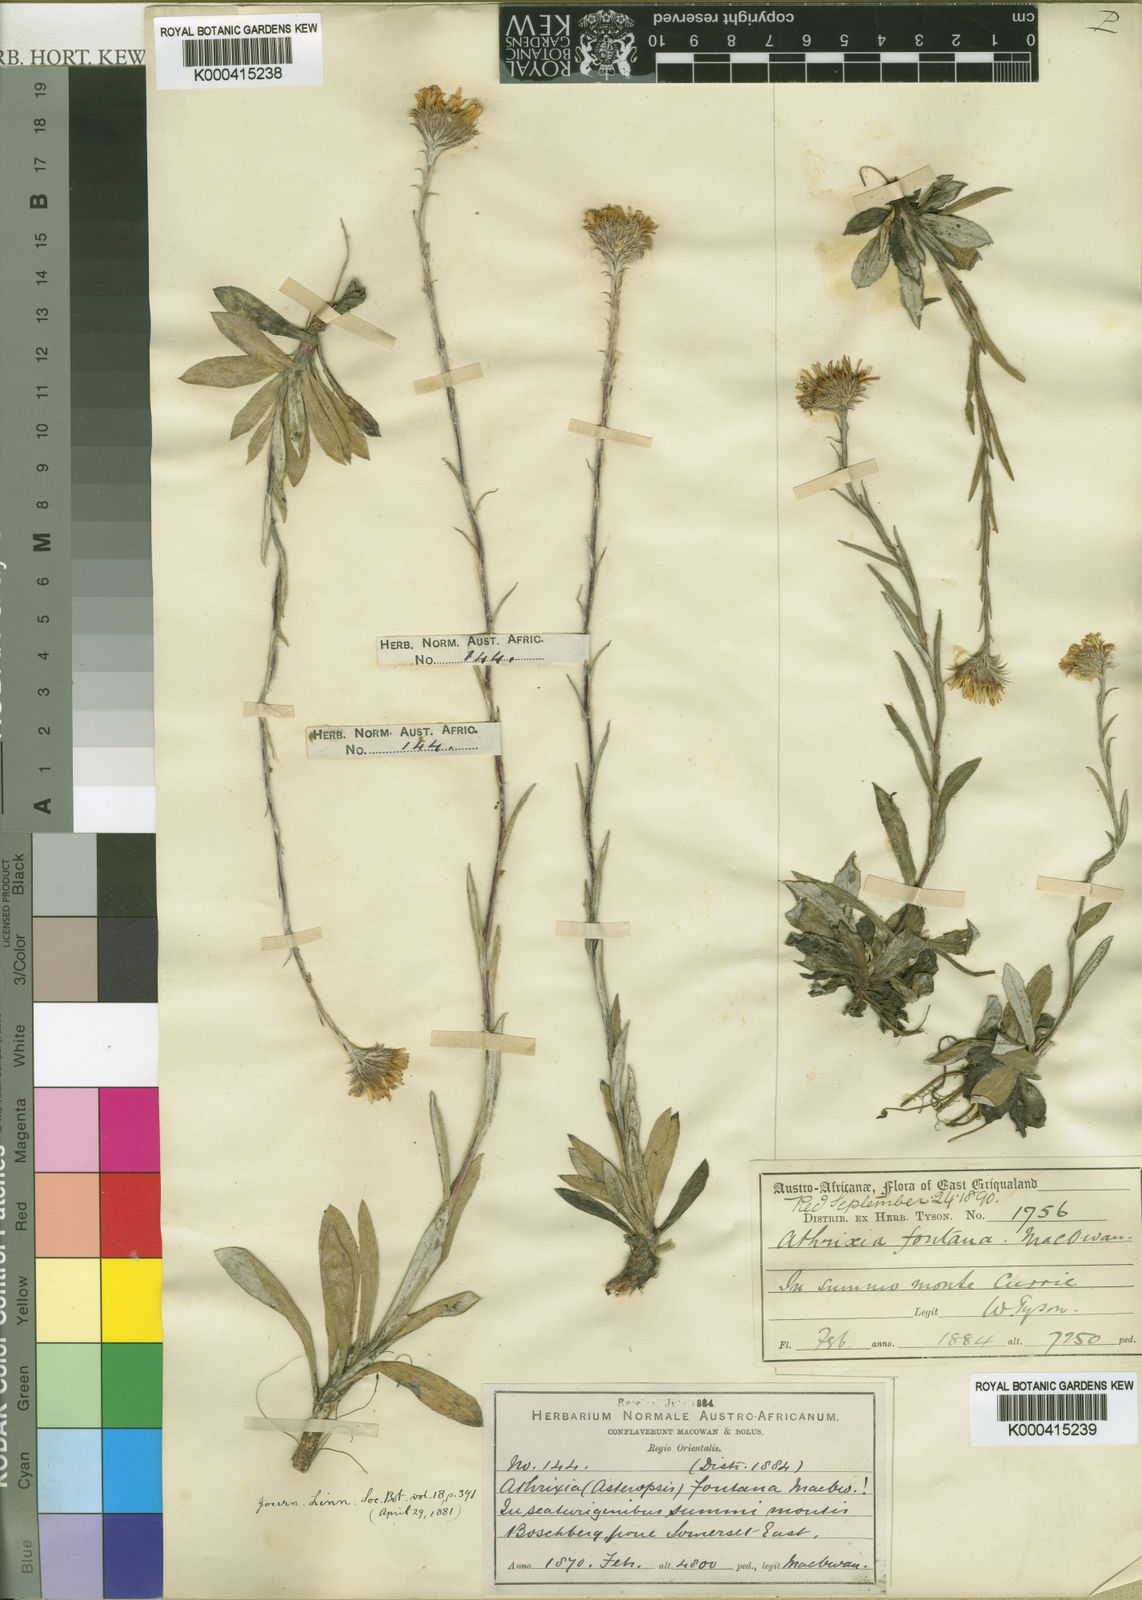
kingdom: Plantae
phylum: Tracheophyta
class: Magnoliopsida
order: Asterales
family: Asteraceae
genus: Athrixia
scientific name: Athrixia fontana
